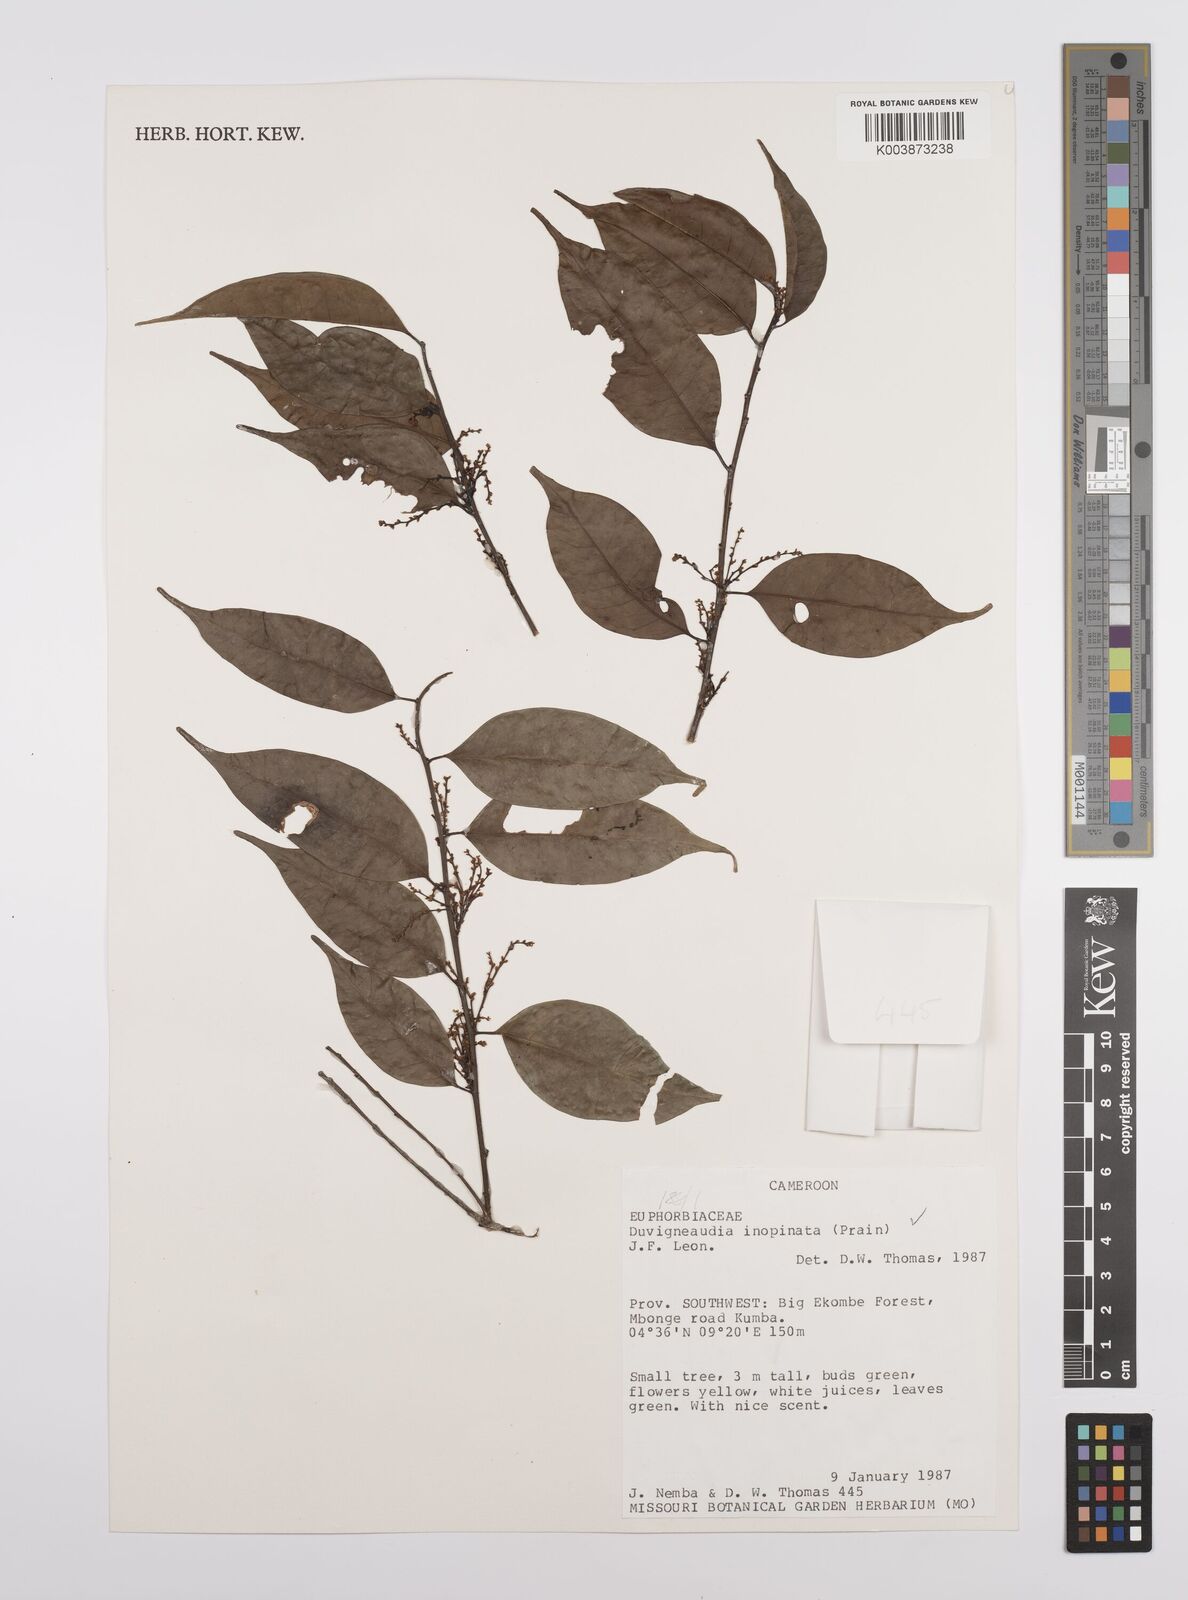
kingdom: Plantae
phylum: Tracheophyta
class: Magnoliopsida
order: Malpighiales
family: Euphorbiaceae
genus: Gymnanthes
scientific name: Gymnanthes inopinata
